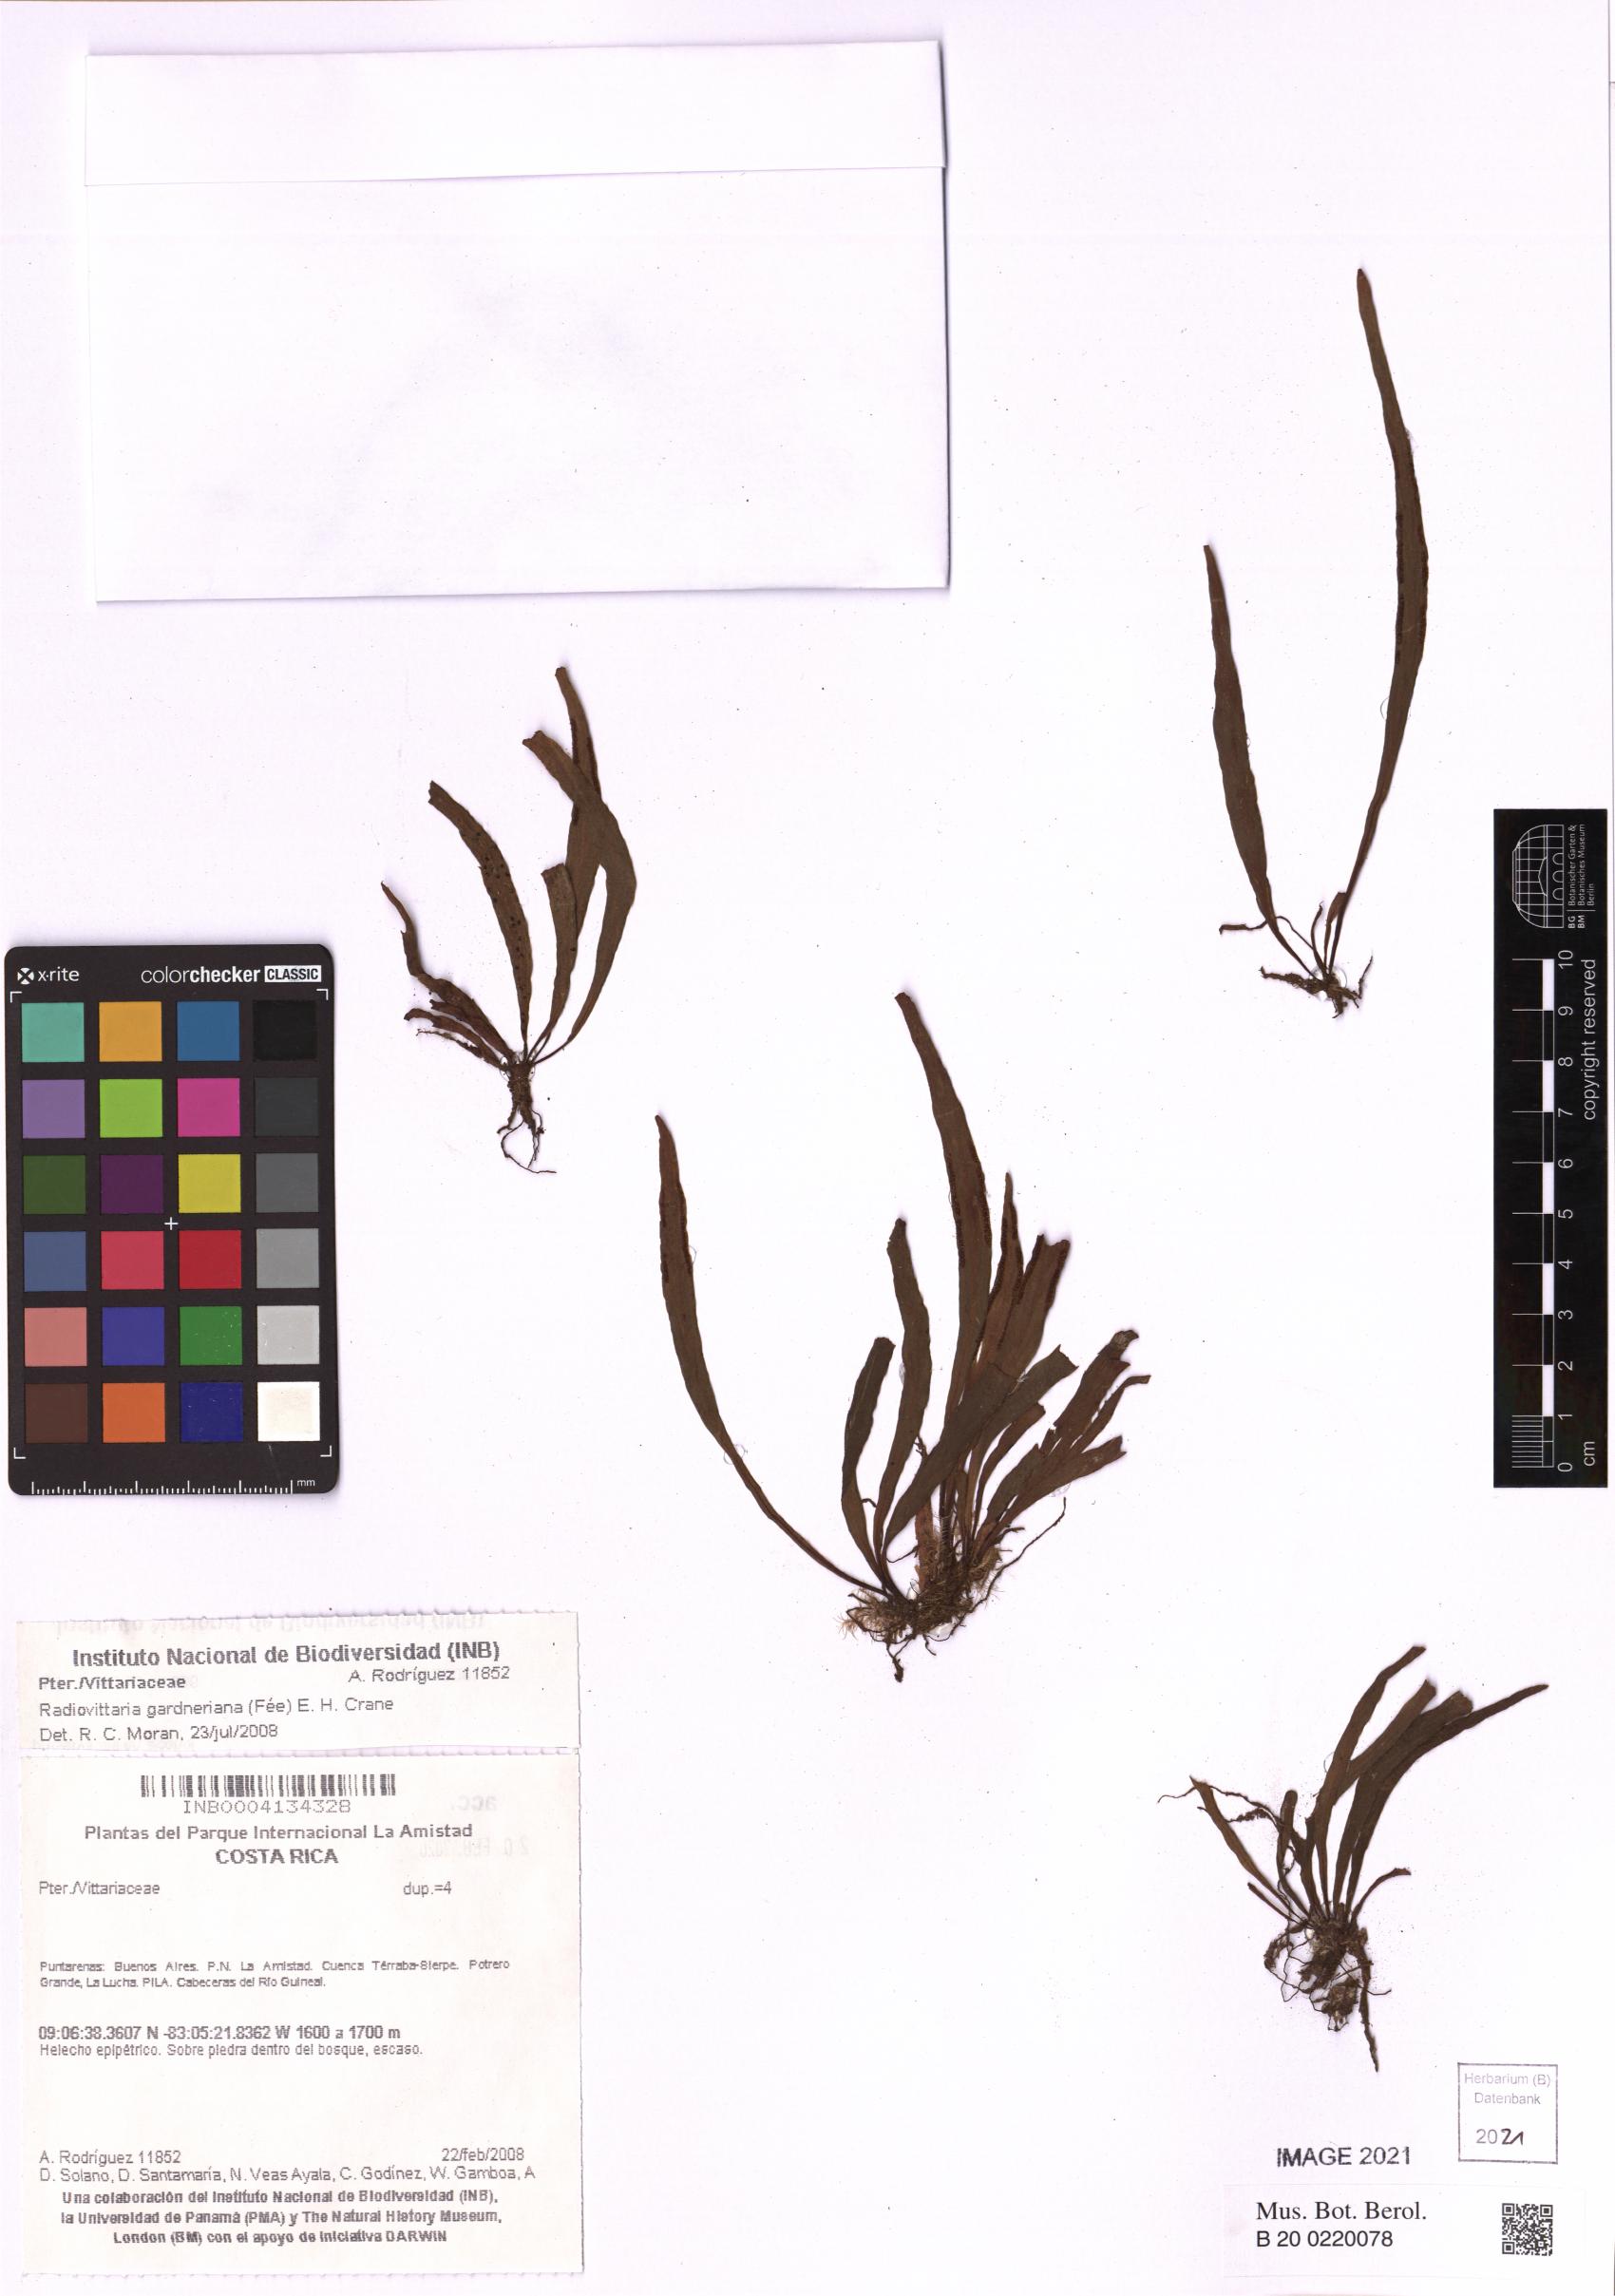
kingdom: Plantae
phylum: Tracheophyta
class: Polypodiopsida
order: Polypodiales
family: Pteridaceae
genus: Radiovittaria
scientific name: Radiovittaria gardneriana
